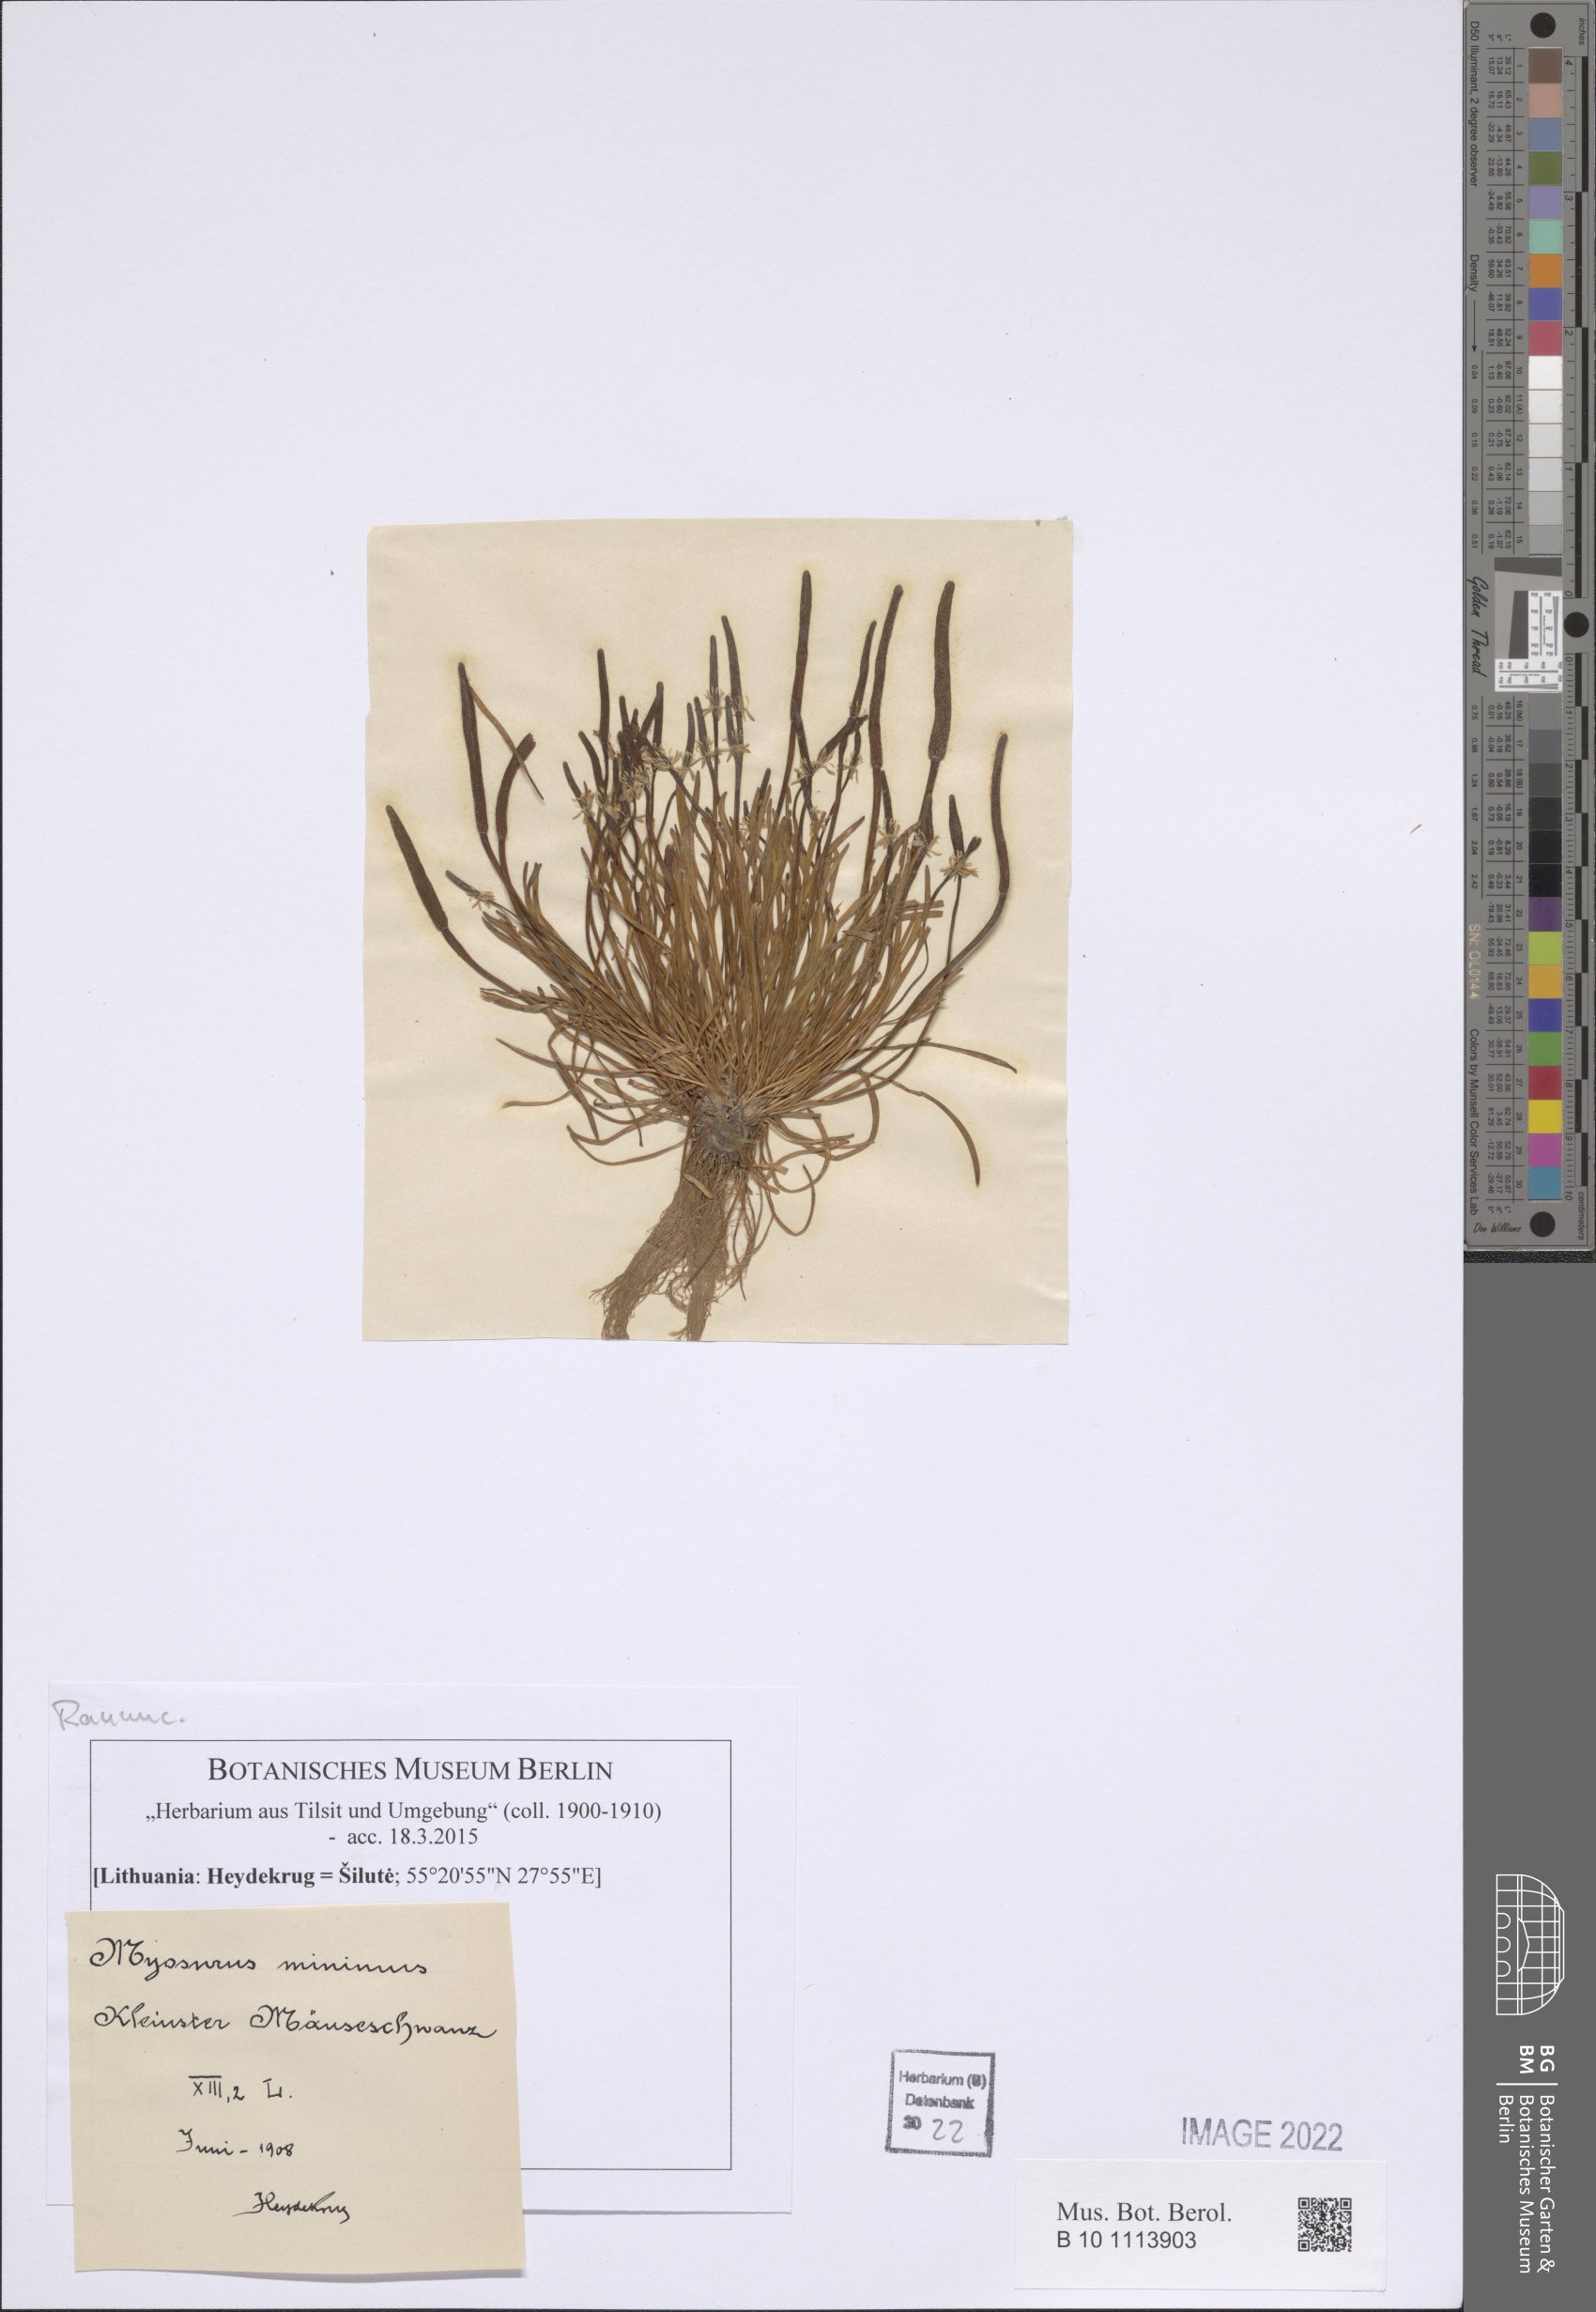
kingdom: Plantae
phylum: Tracheophyta
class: Magnoliopsida
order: Ranunculales
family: Ranunculaceae
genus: Myosurus
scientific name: Myosurus minimus
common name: Mousetail
